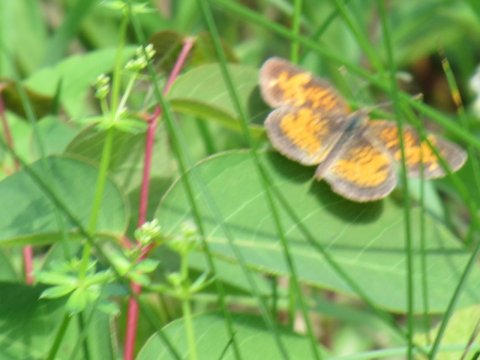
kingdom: Animalia
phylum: Arthropoda
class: Insecta
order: Lepidoptera
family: Nymphalidae
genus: Phyciodes
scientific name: Phyciodes
